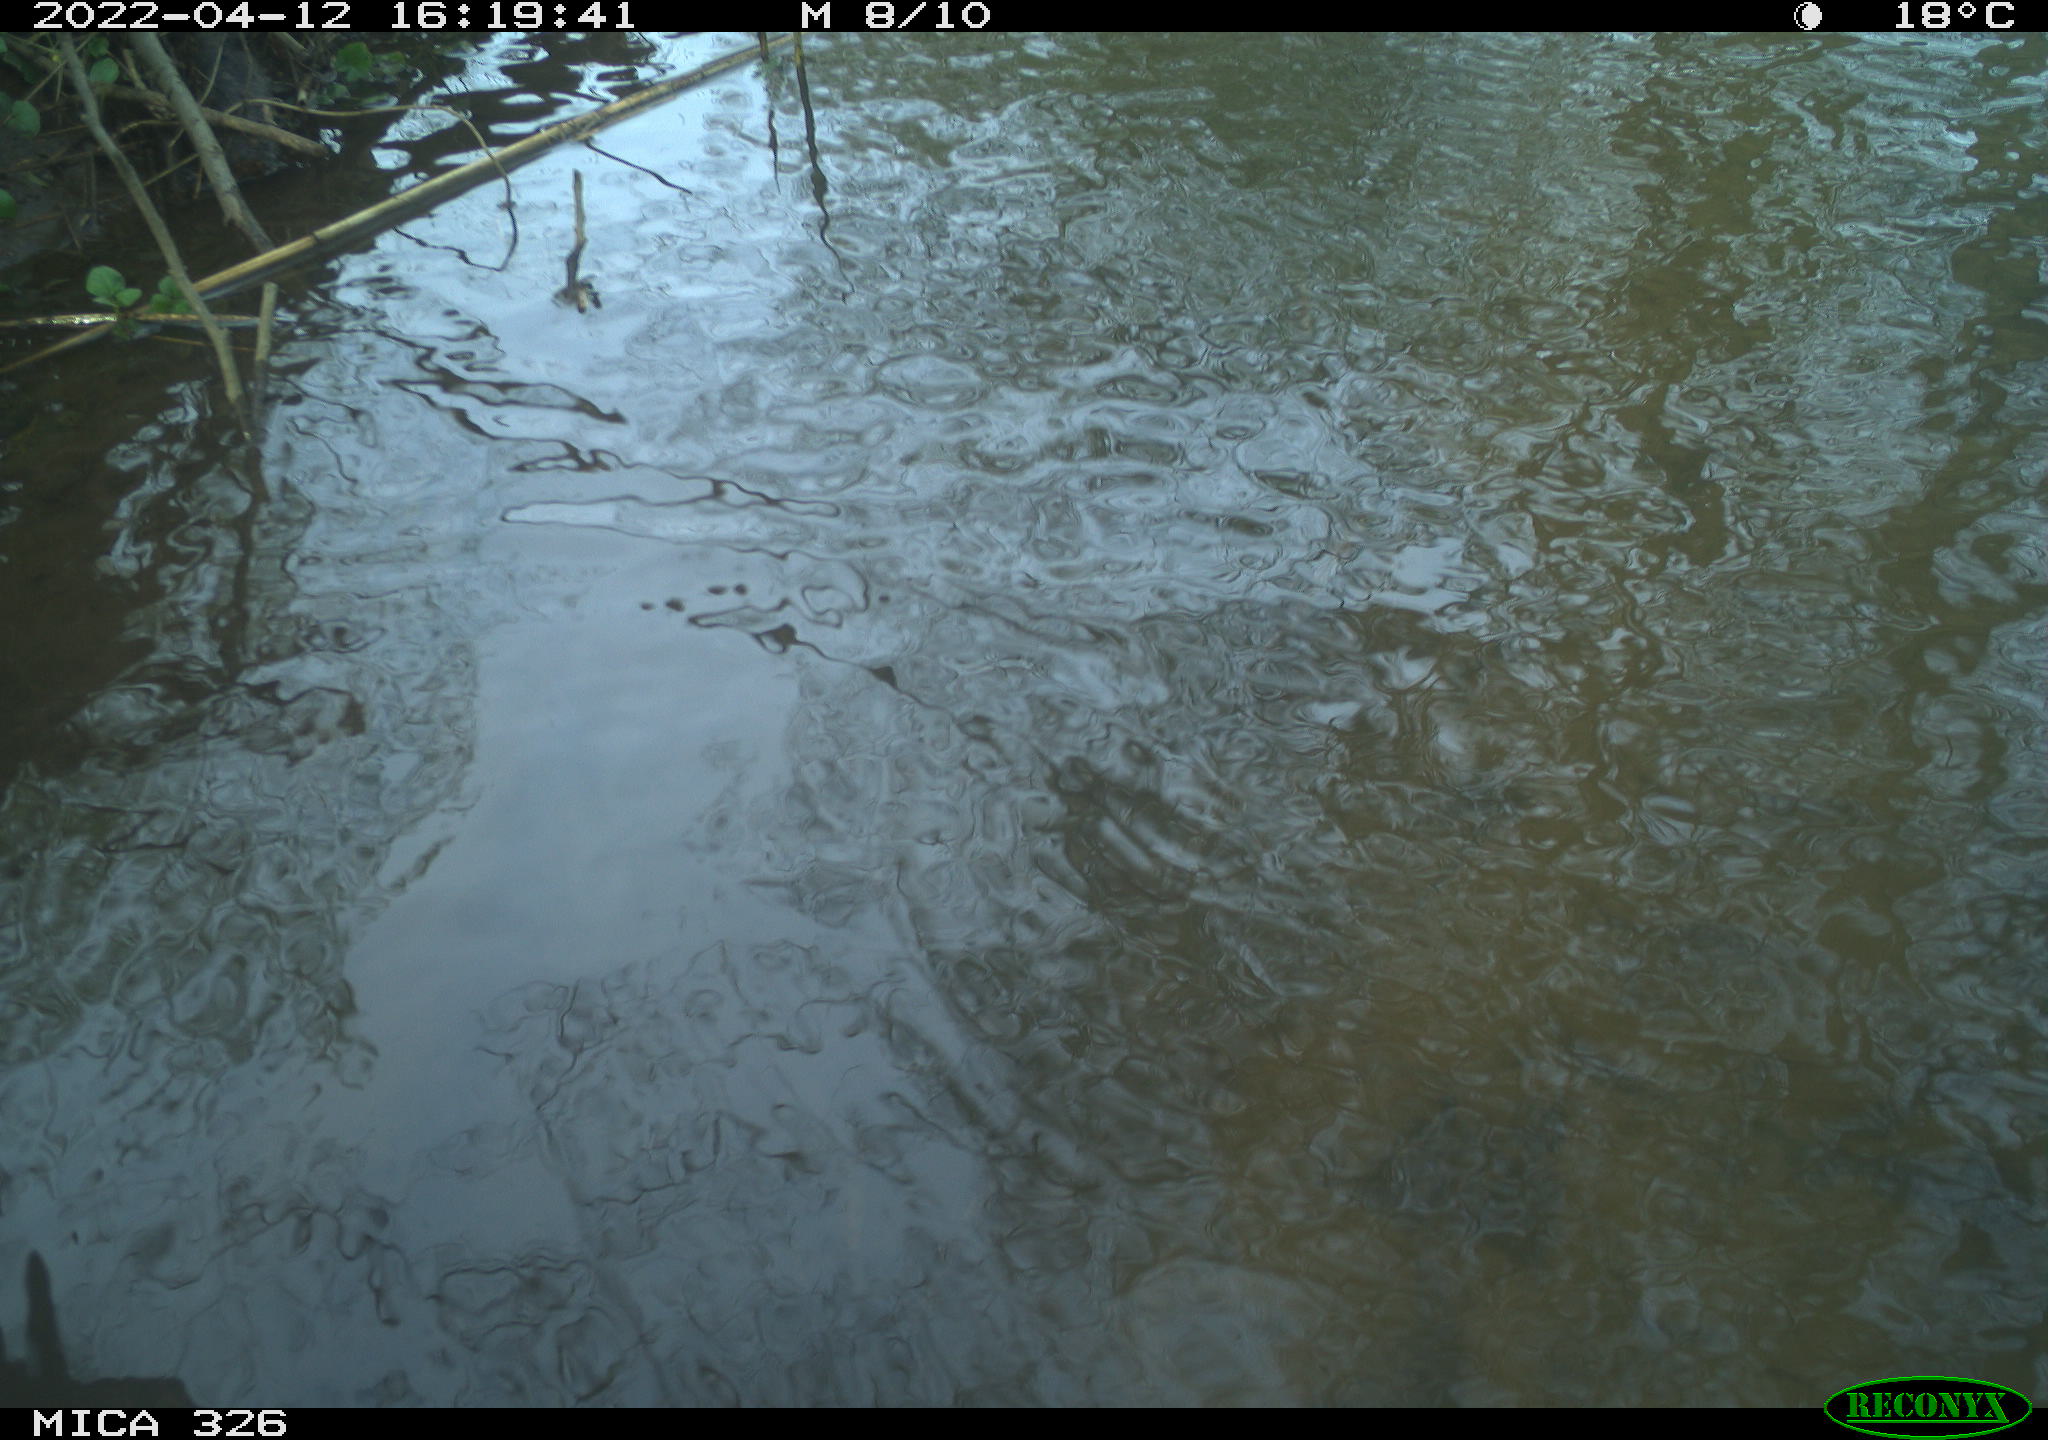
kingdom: Animalia
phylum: Chordata
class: Mammalia
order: Rodentia
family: Cricetidae
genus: Ondatra
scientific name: Ondatra zibethicus
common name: Muskrat
